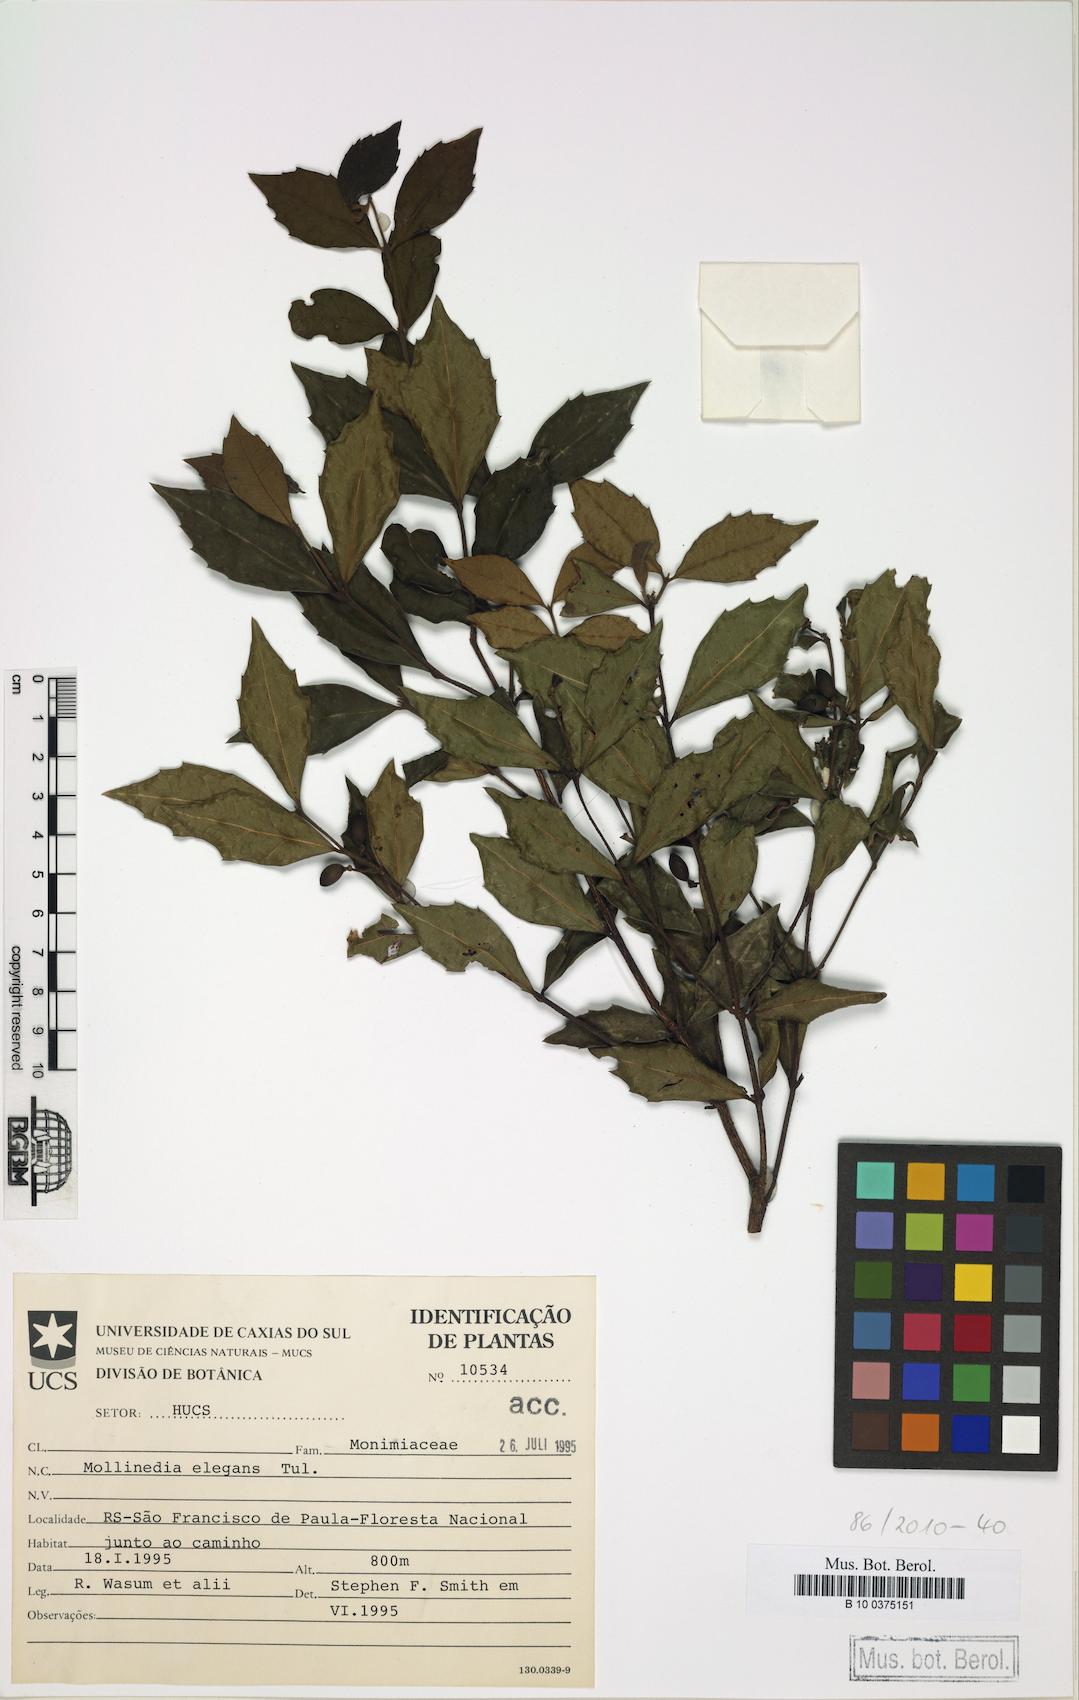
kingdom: Plantae
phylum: Tracheophyta
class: Magnoliopsida
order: Laurales
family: Monimiaceae
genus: Mollinedia
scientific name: Mollinedia elegans
